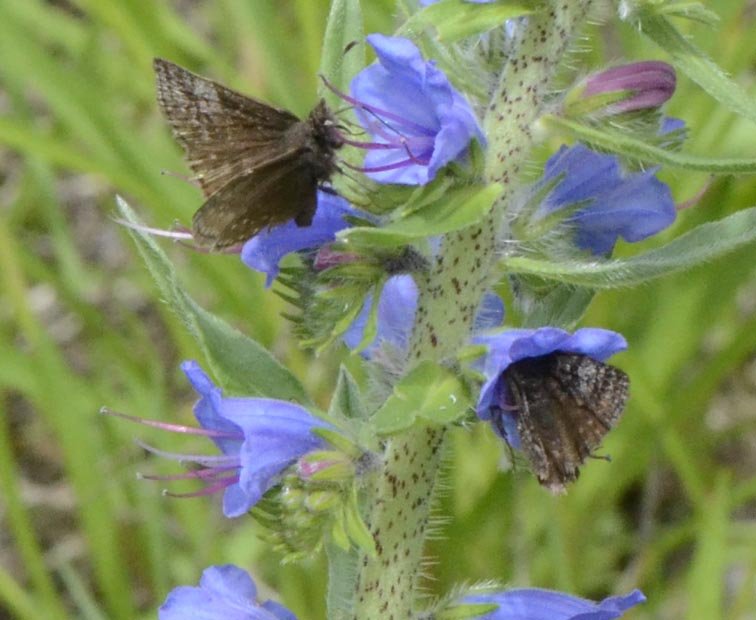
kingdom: Animalia
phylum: Arthropoda
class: Insecta
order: Lepidoptera
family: Hesperiidae
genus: Erynnis
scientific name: Erynnis icelus
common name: Dreamy Duskywing
